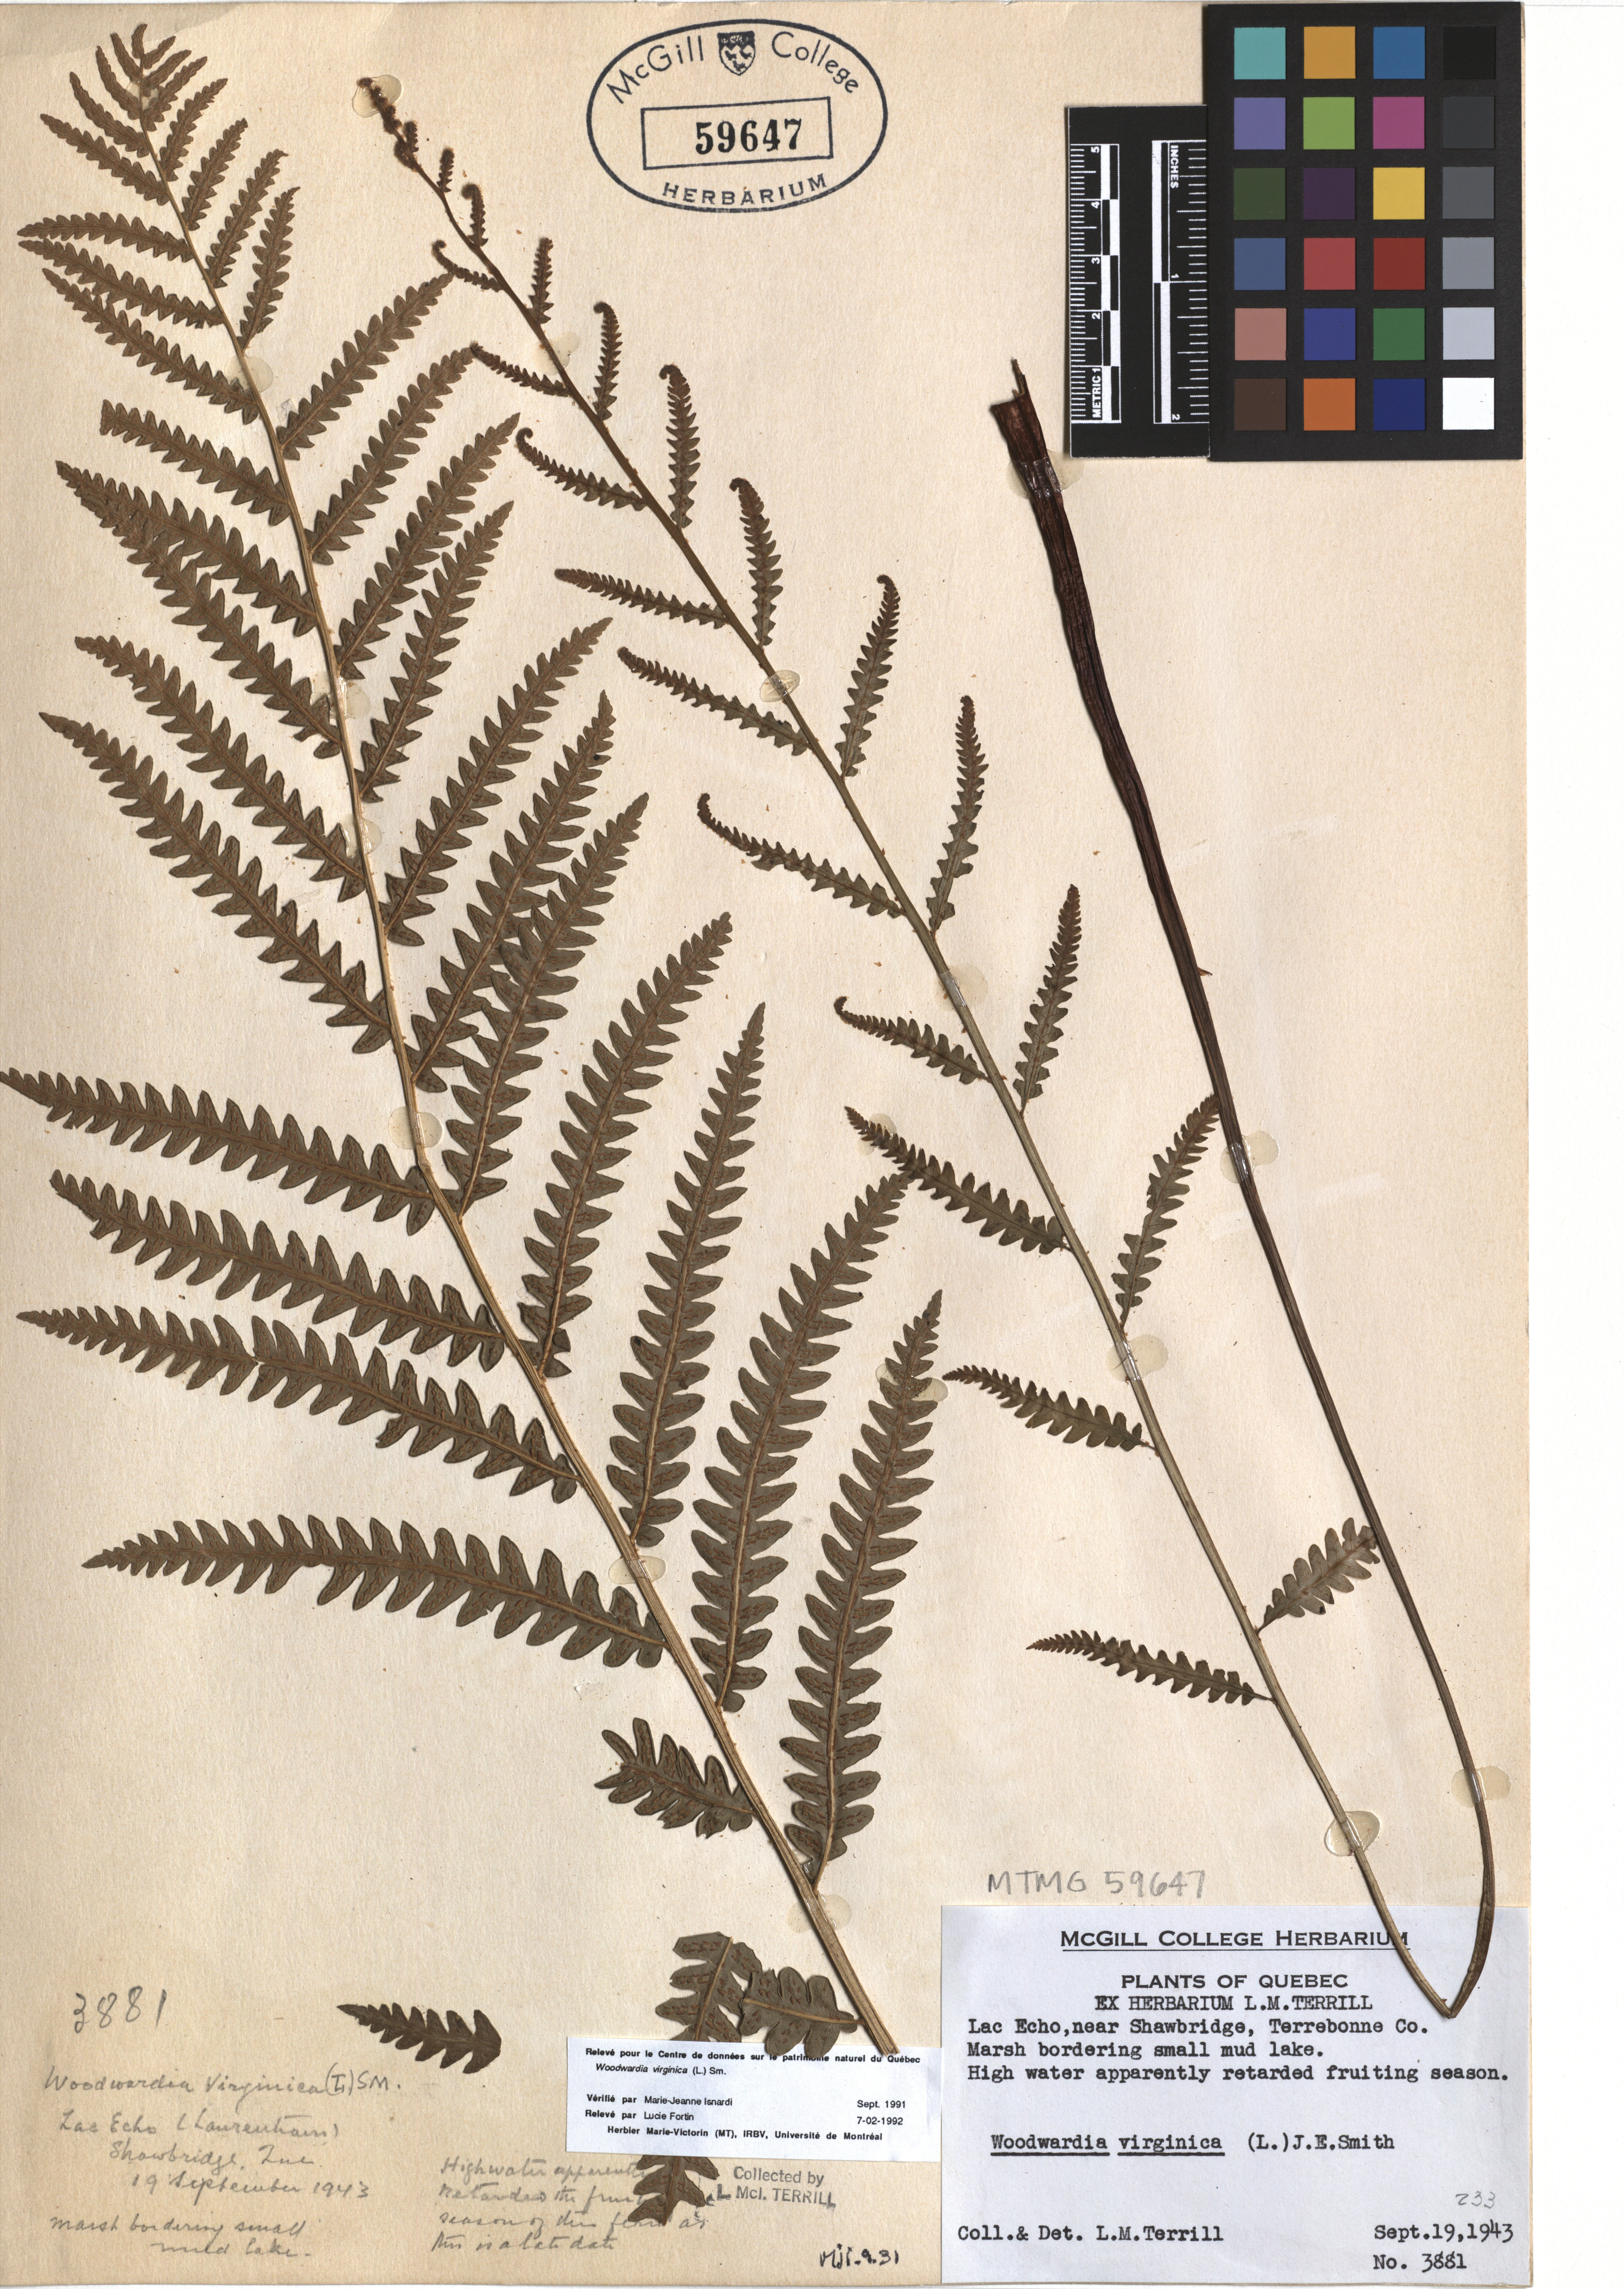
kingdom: Plantae
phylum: Tracheophyta
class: Polypodiopsida
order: Polypodiales
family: Blechnaceae
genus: Anchistea
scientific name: Anchistea virginica
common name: Virginia chain fern
